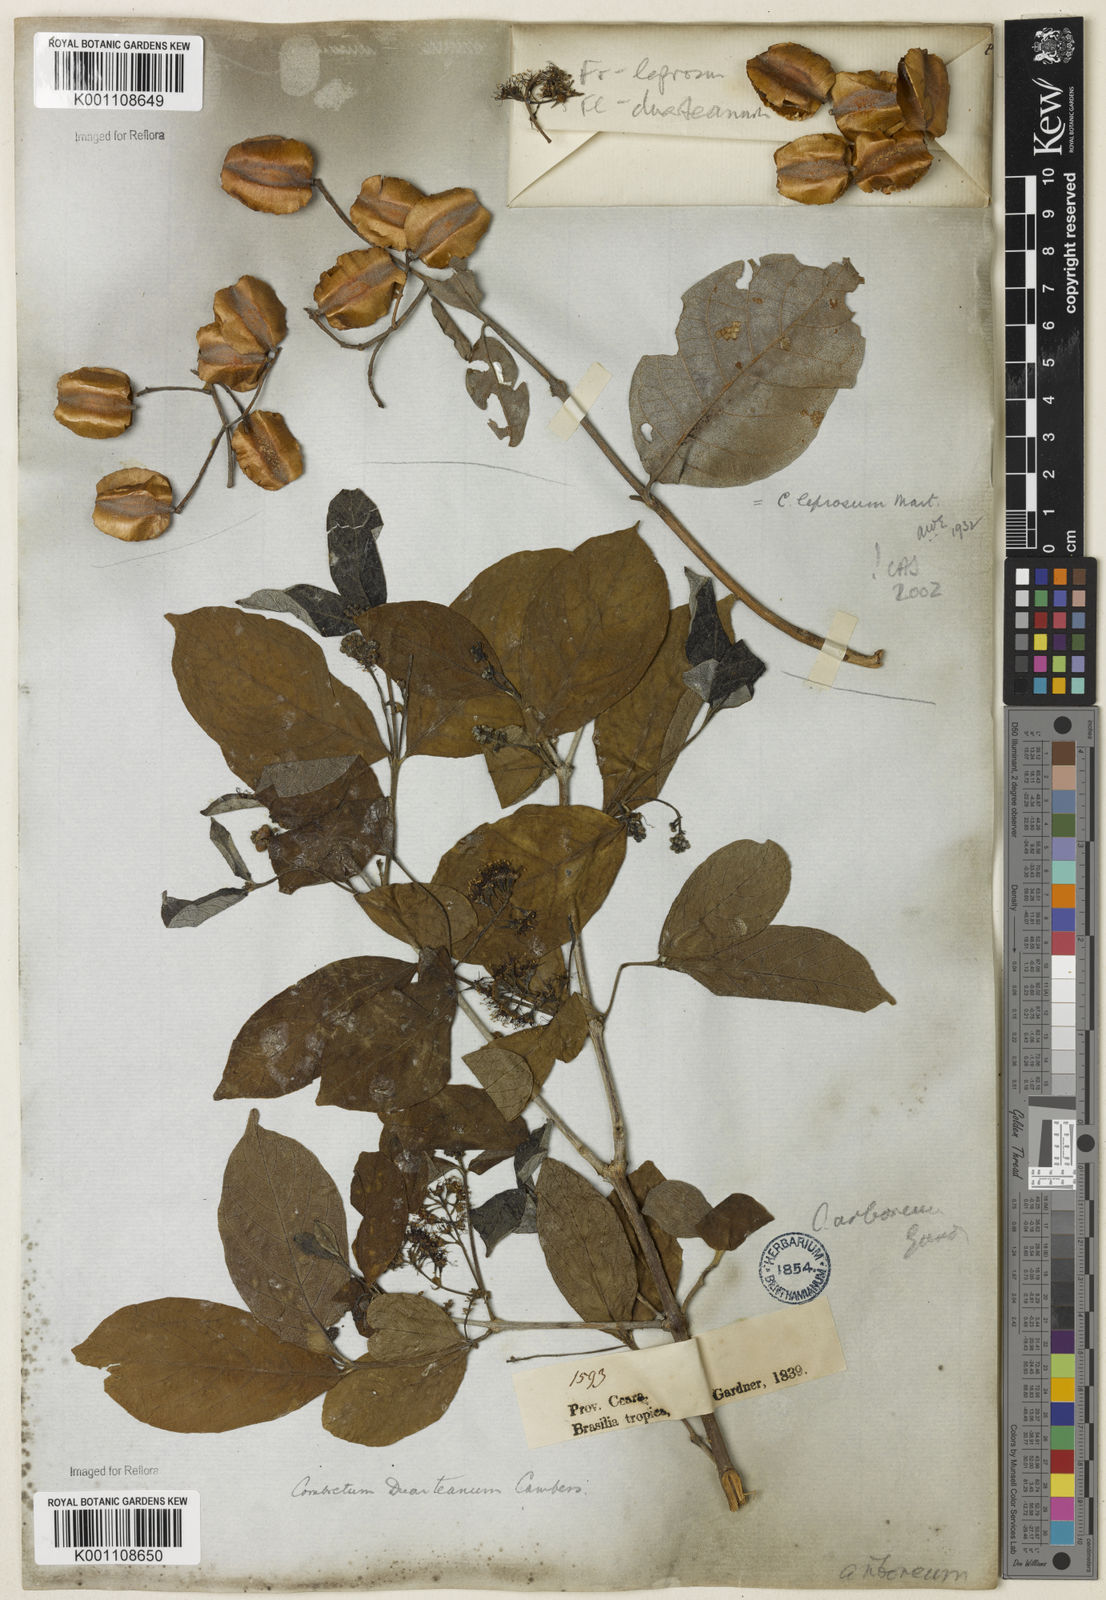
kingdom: Plantae
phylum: Tracheophyta
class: Magnoliopsida
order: Myrtales
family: Combretaceae
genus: Combretum
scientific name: Combretum duarteanum
